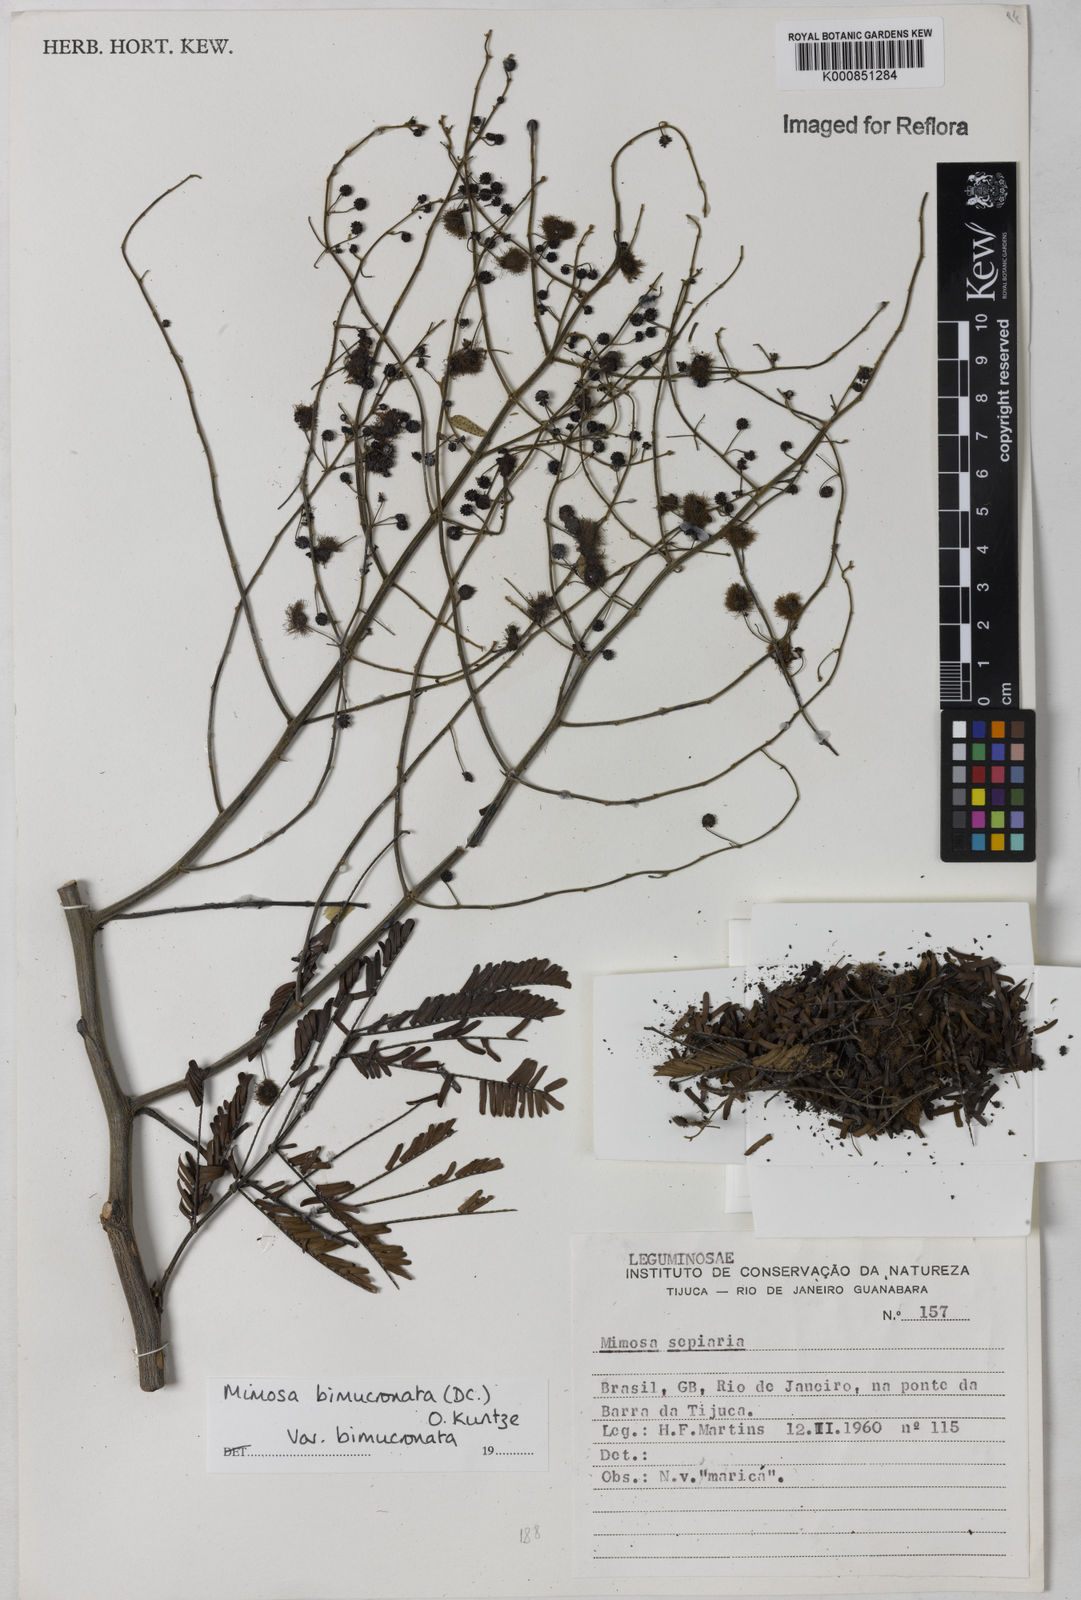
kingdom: Plantae
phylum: Tracheophyta
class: Magnoliopsida
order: Fabales
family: Fabaceae
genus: Mimosa
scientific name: Mimosa bimucronata
